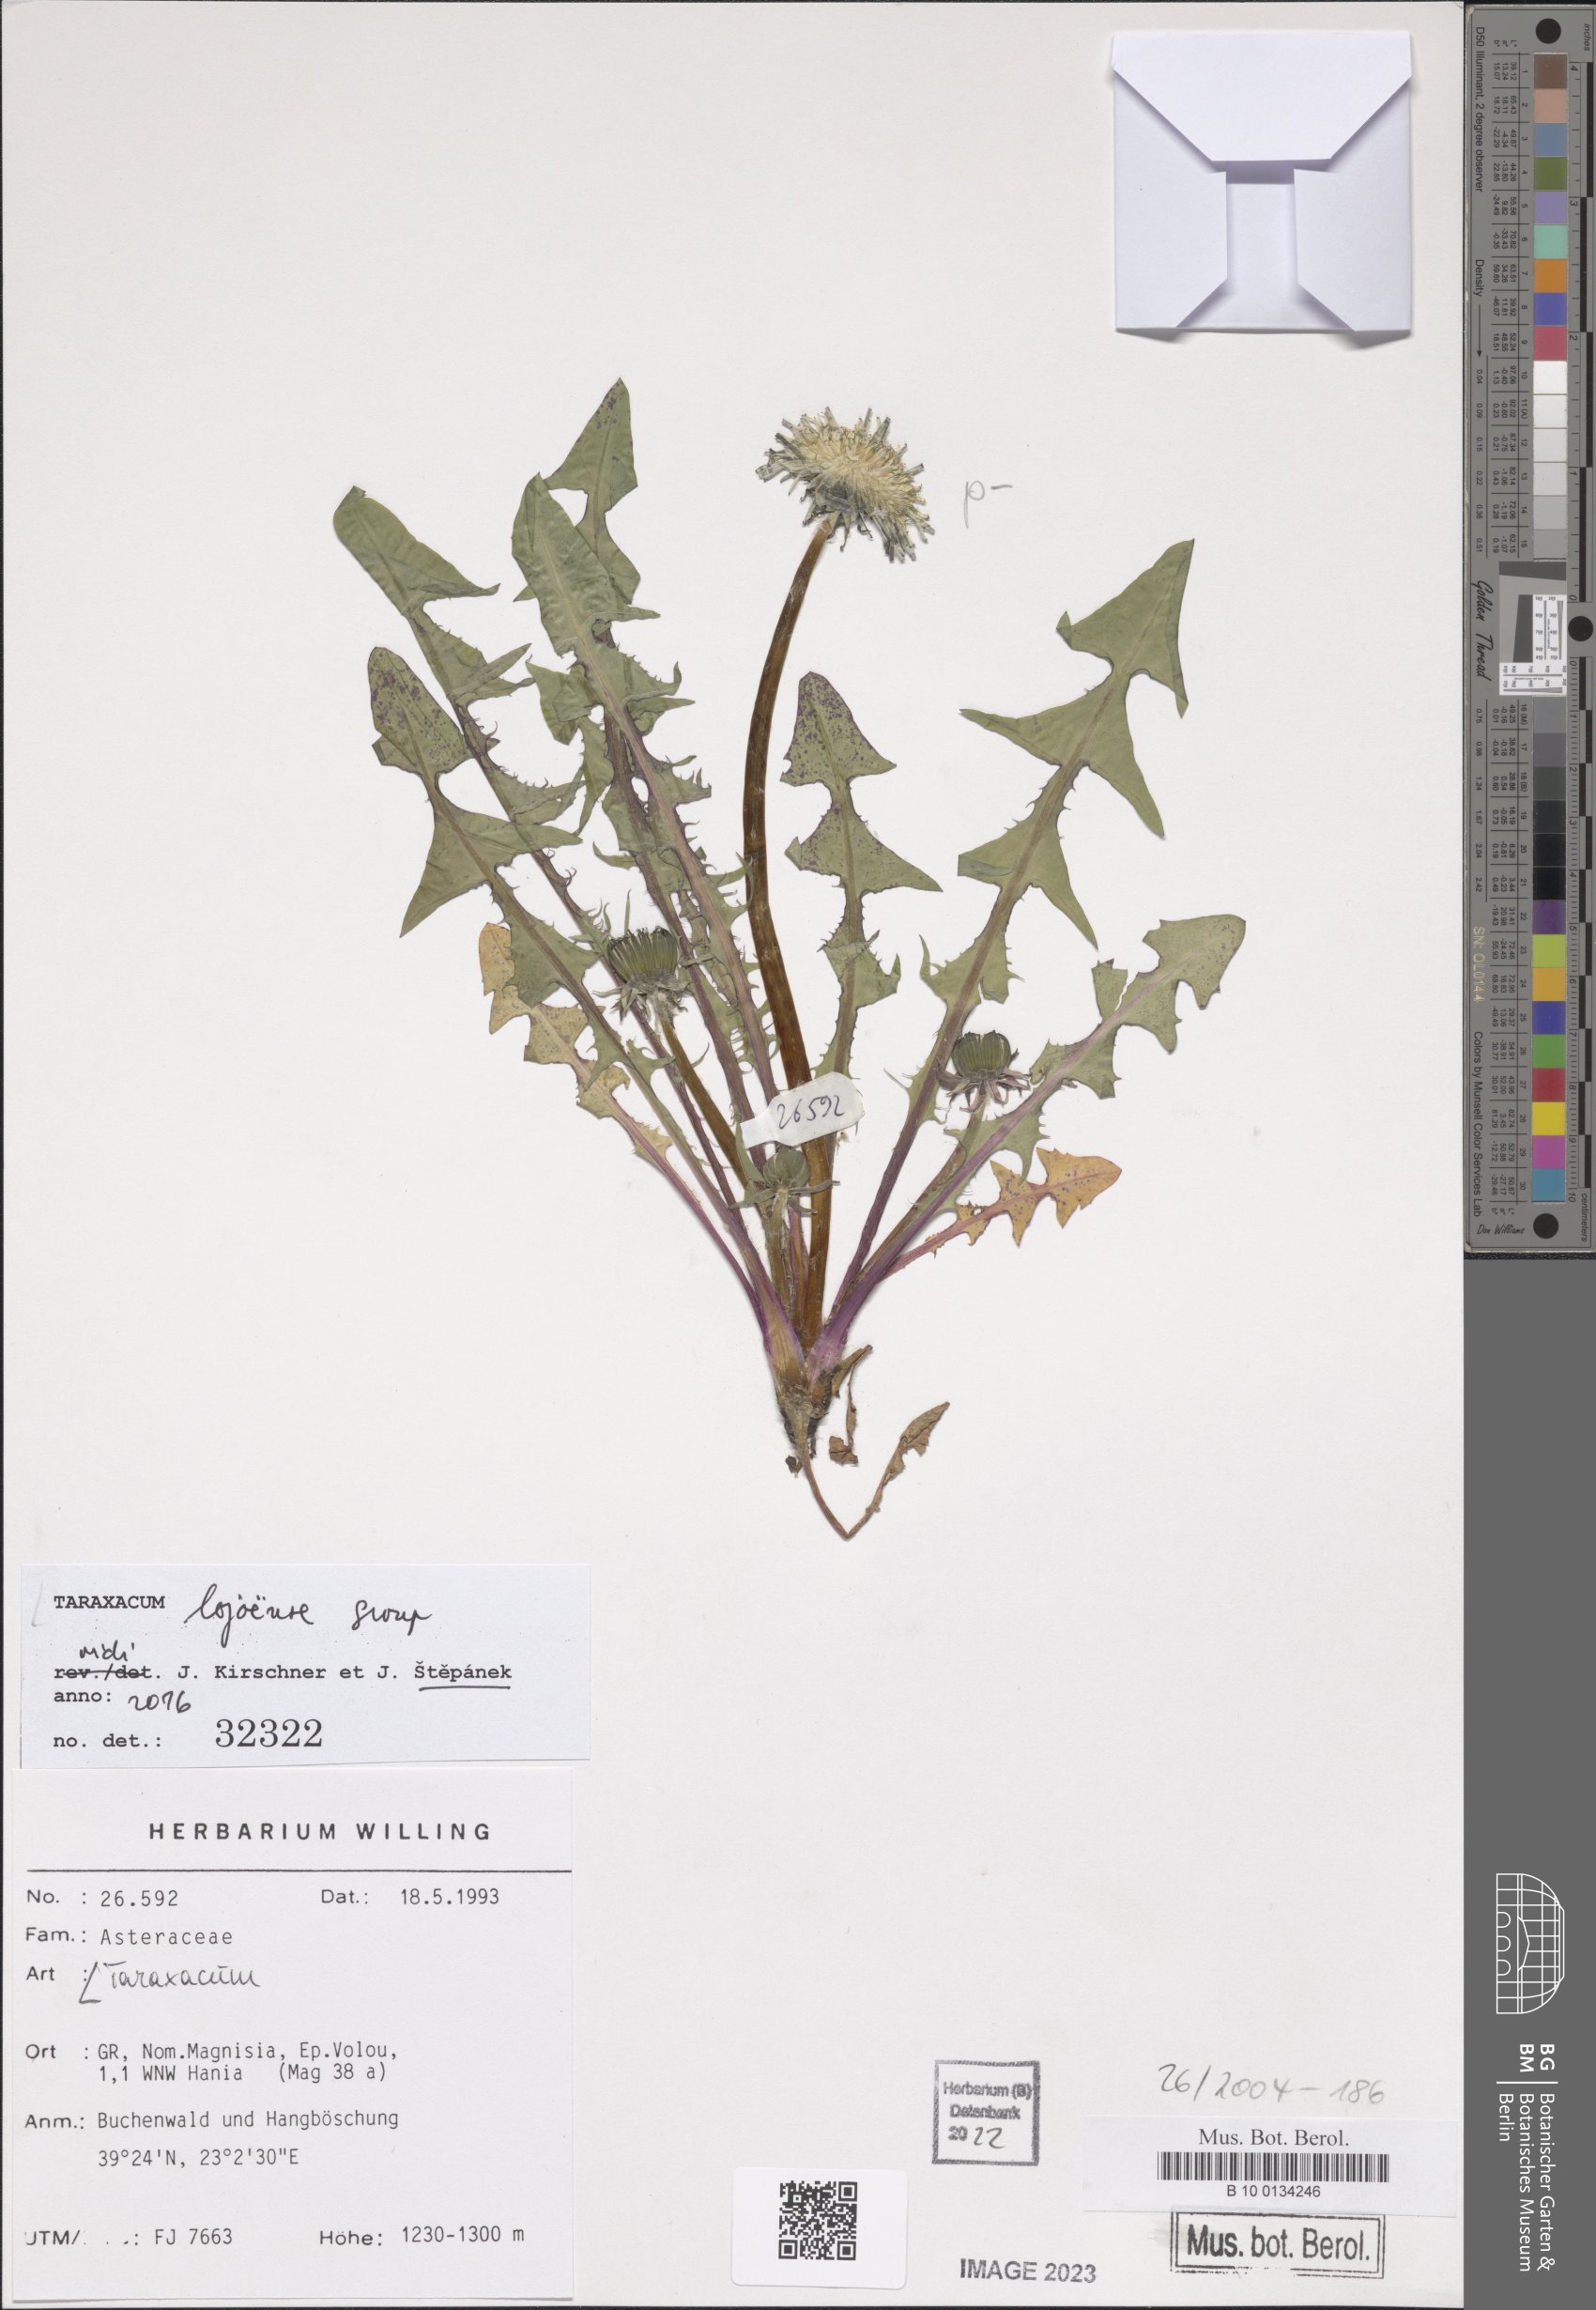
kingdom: Plantae
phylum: Tracheophyta
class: Magnoliopsida
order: Asterales
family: Asteraceae
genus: Taraxacum
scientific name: Taraxacum
